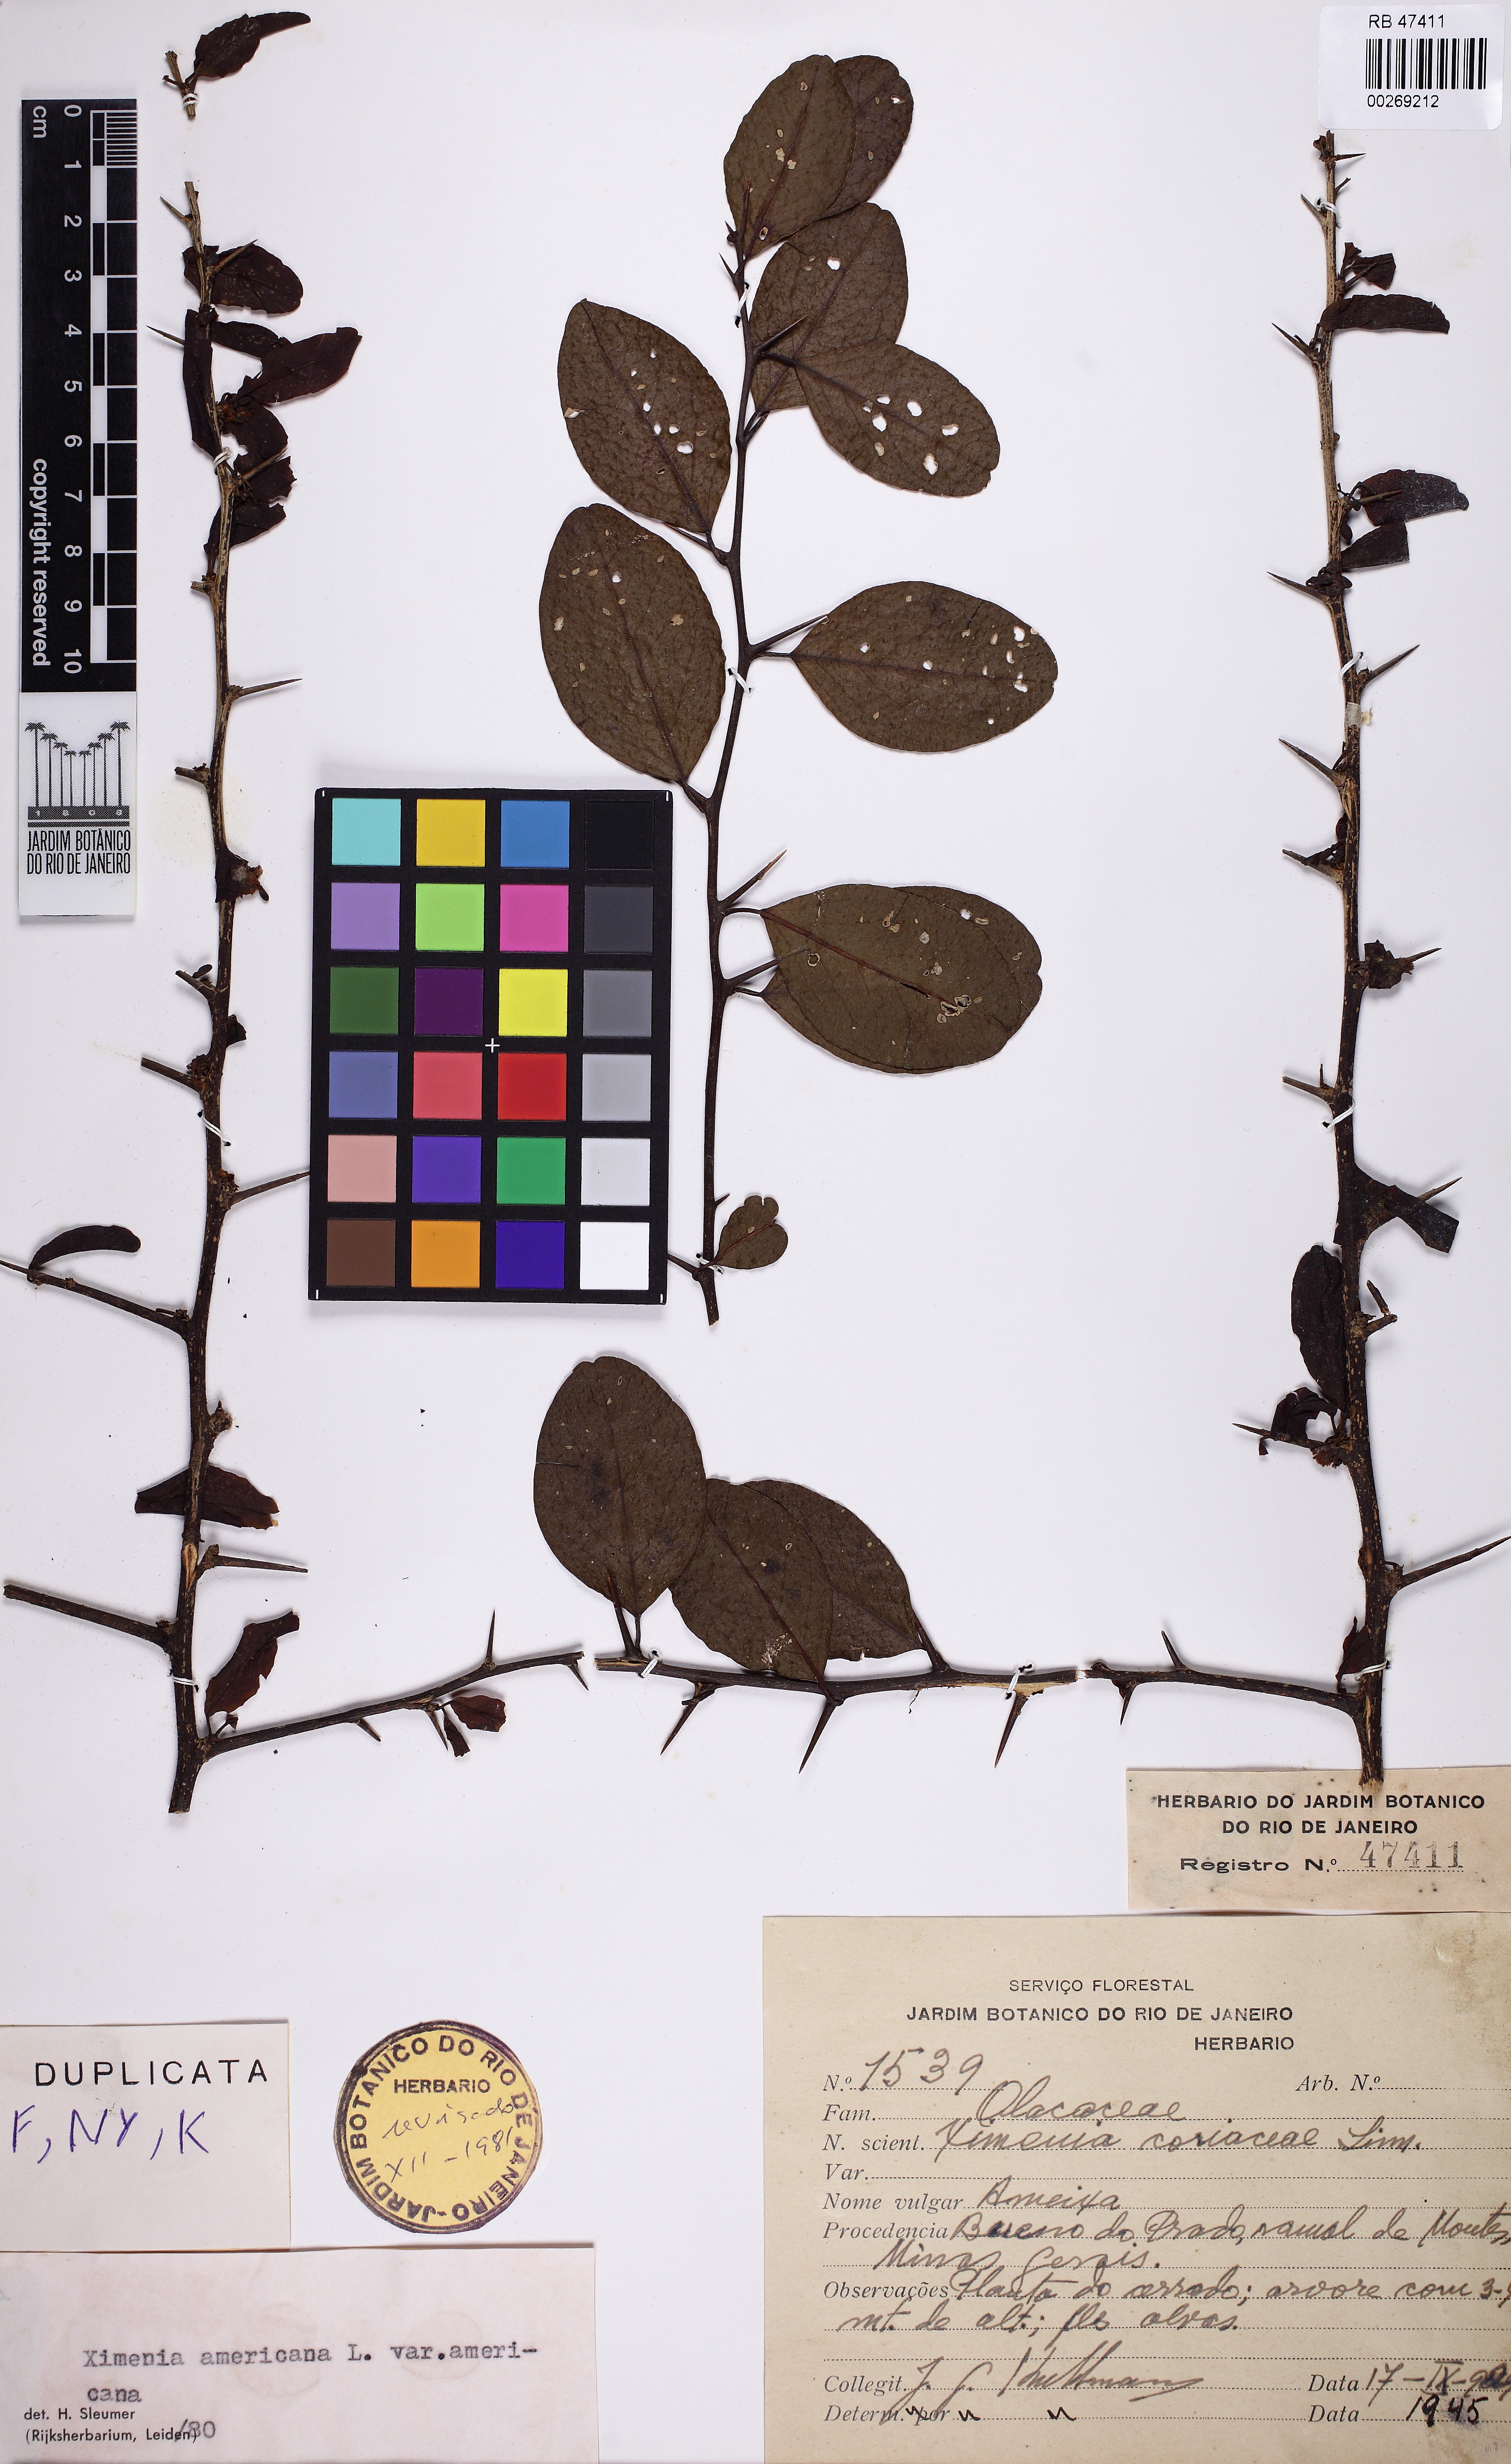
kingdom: Plantae
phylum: Tracheophyta
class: Magnoliopsida
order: Santalales
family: Ximeniaceae
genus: Ximenia
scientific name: Ximenia americana
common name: Tallowwood
